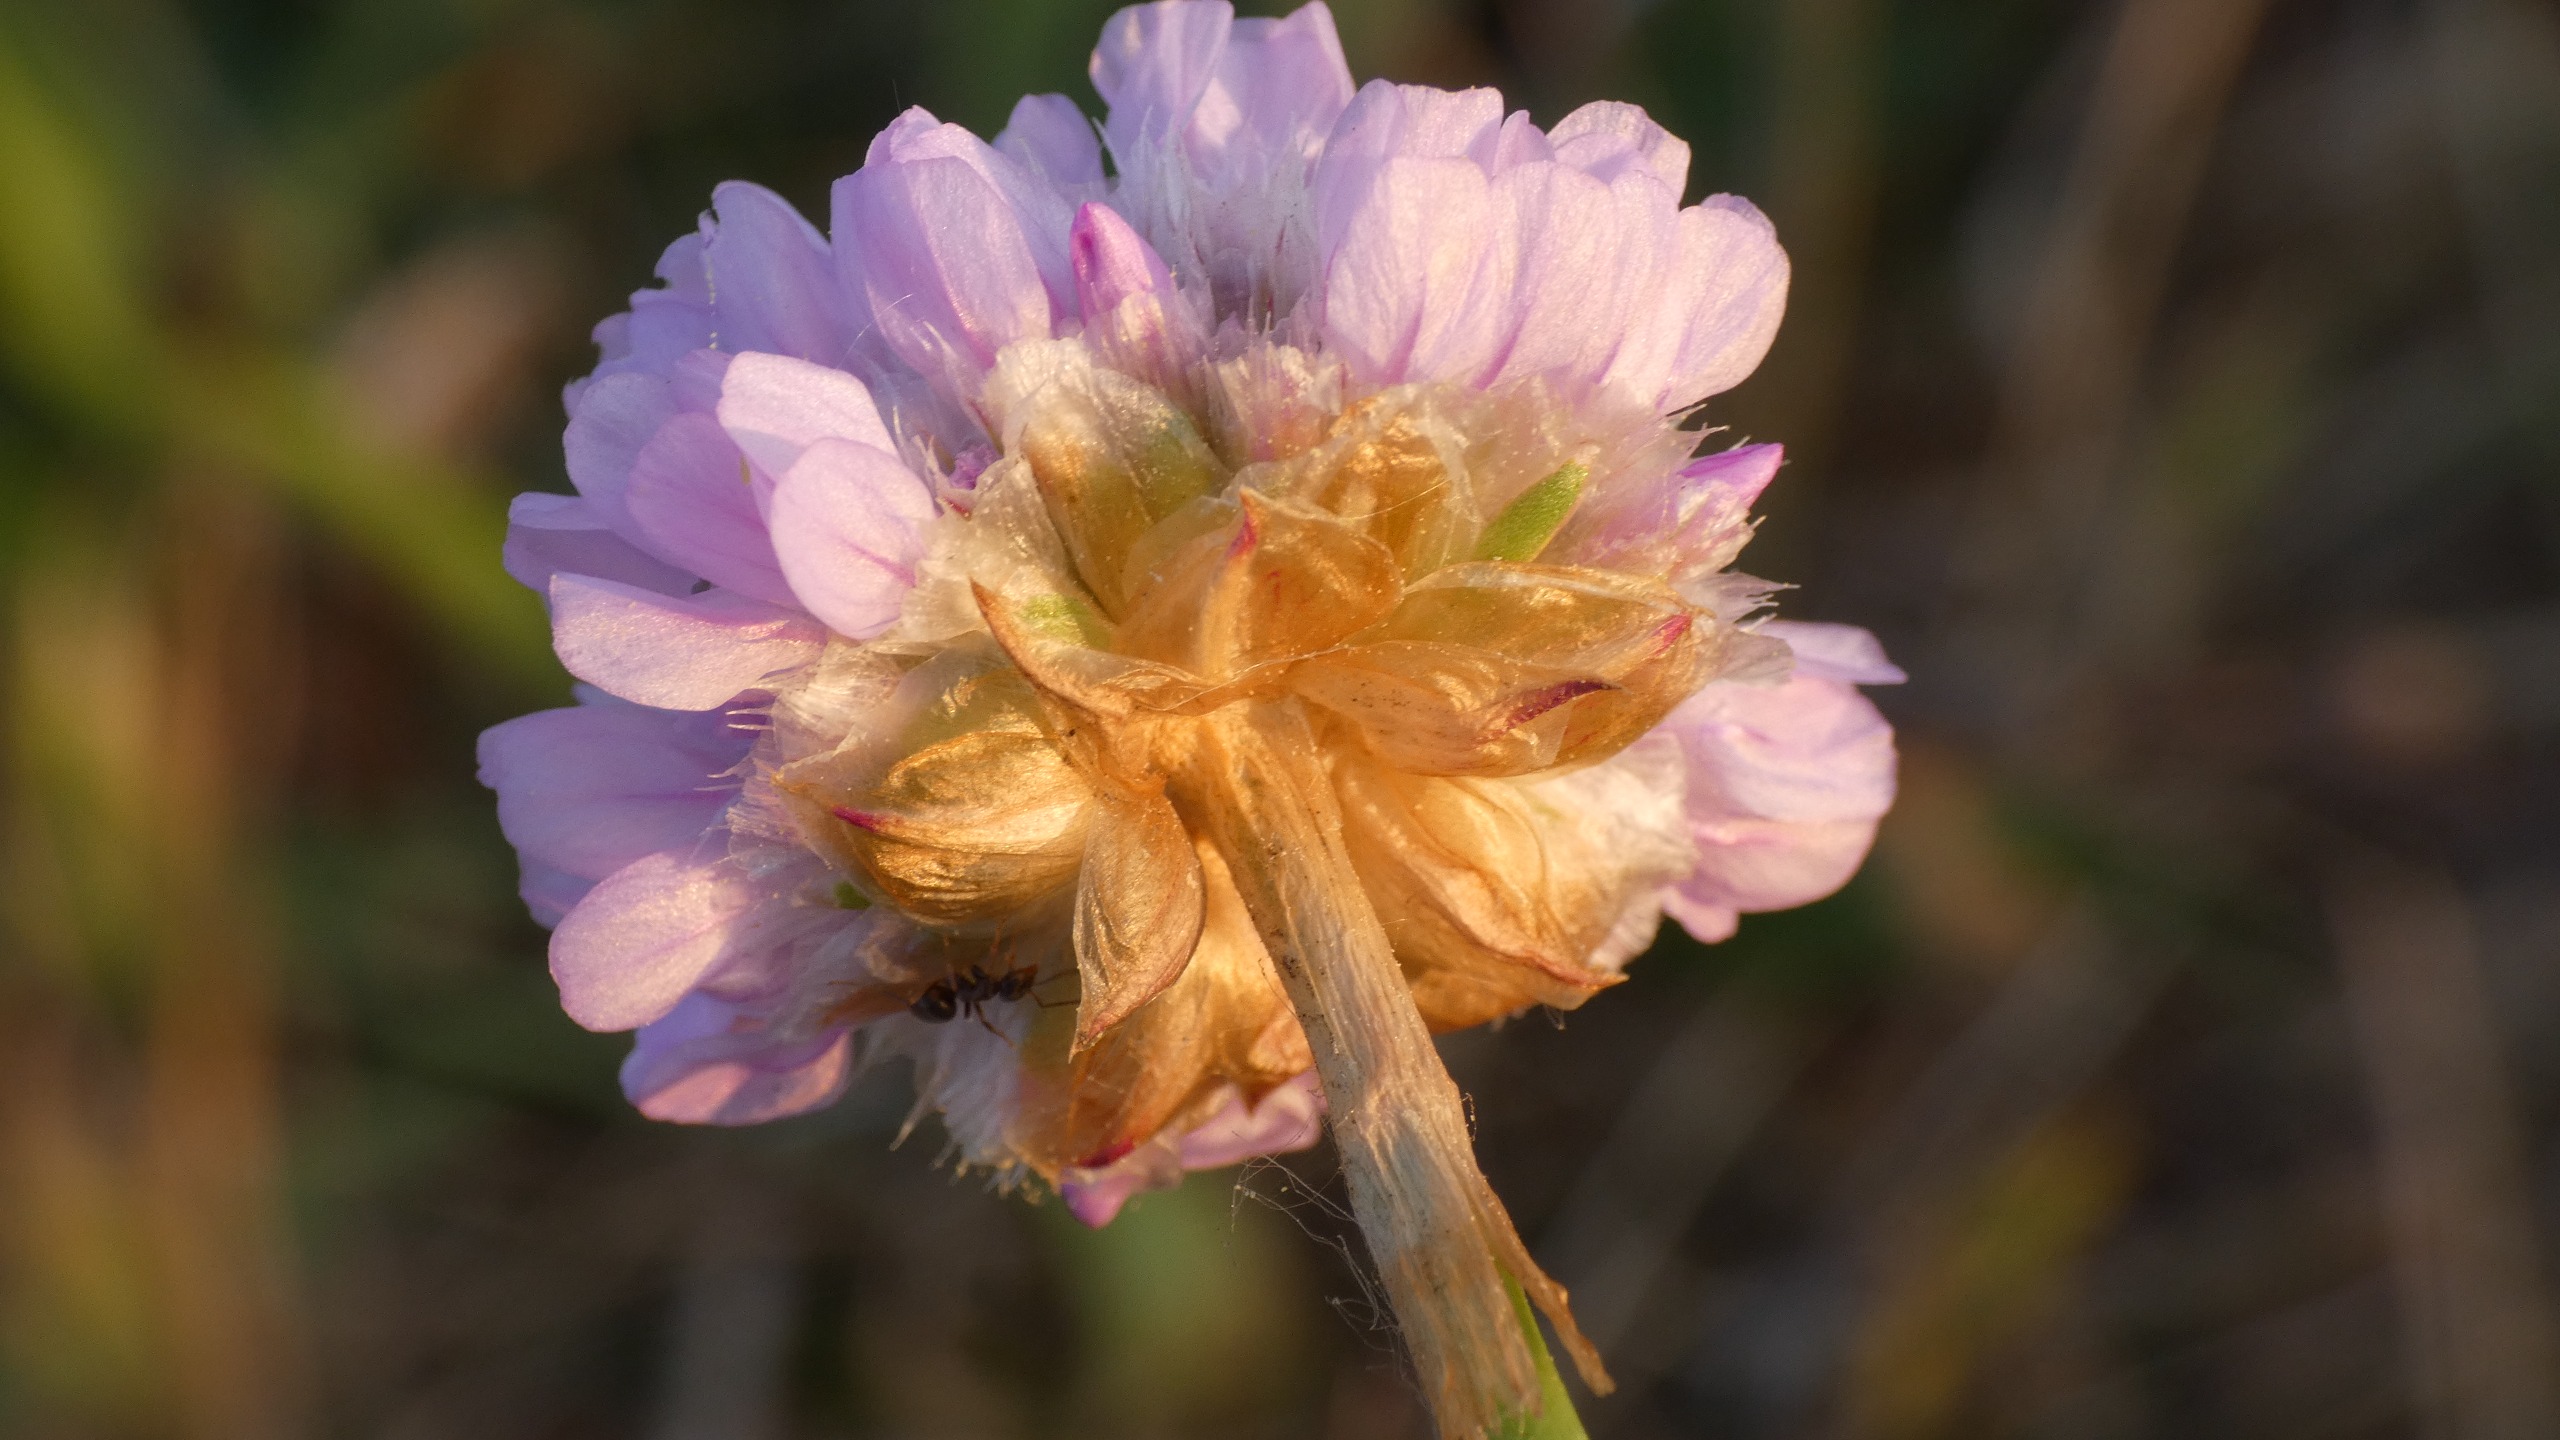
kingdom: Plantae
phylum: Tracheophyta
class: Magnoliopsida
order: Caryophyllales
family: Plumbaginaceae
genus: Armeria
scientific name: Armeria maritima
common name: Engelskgræs
